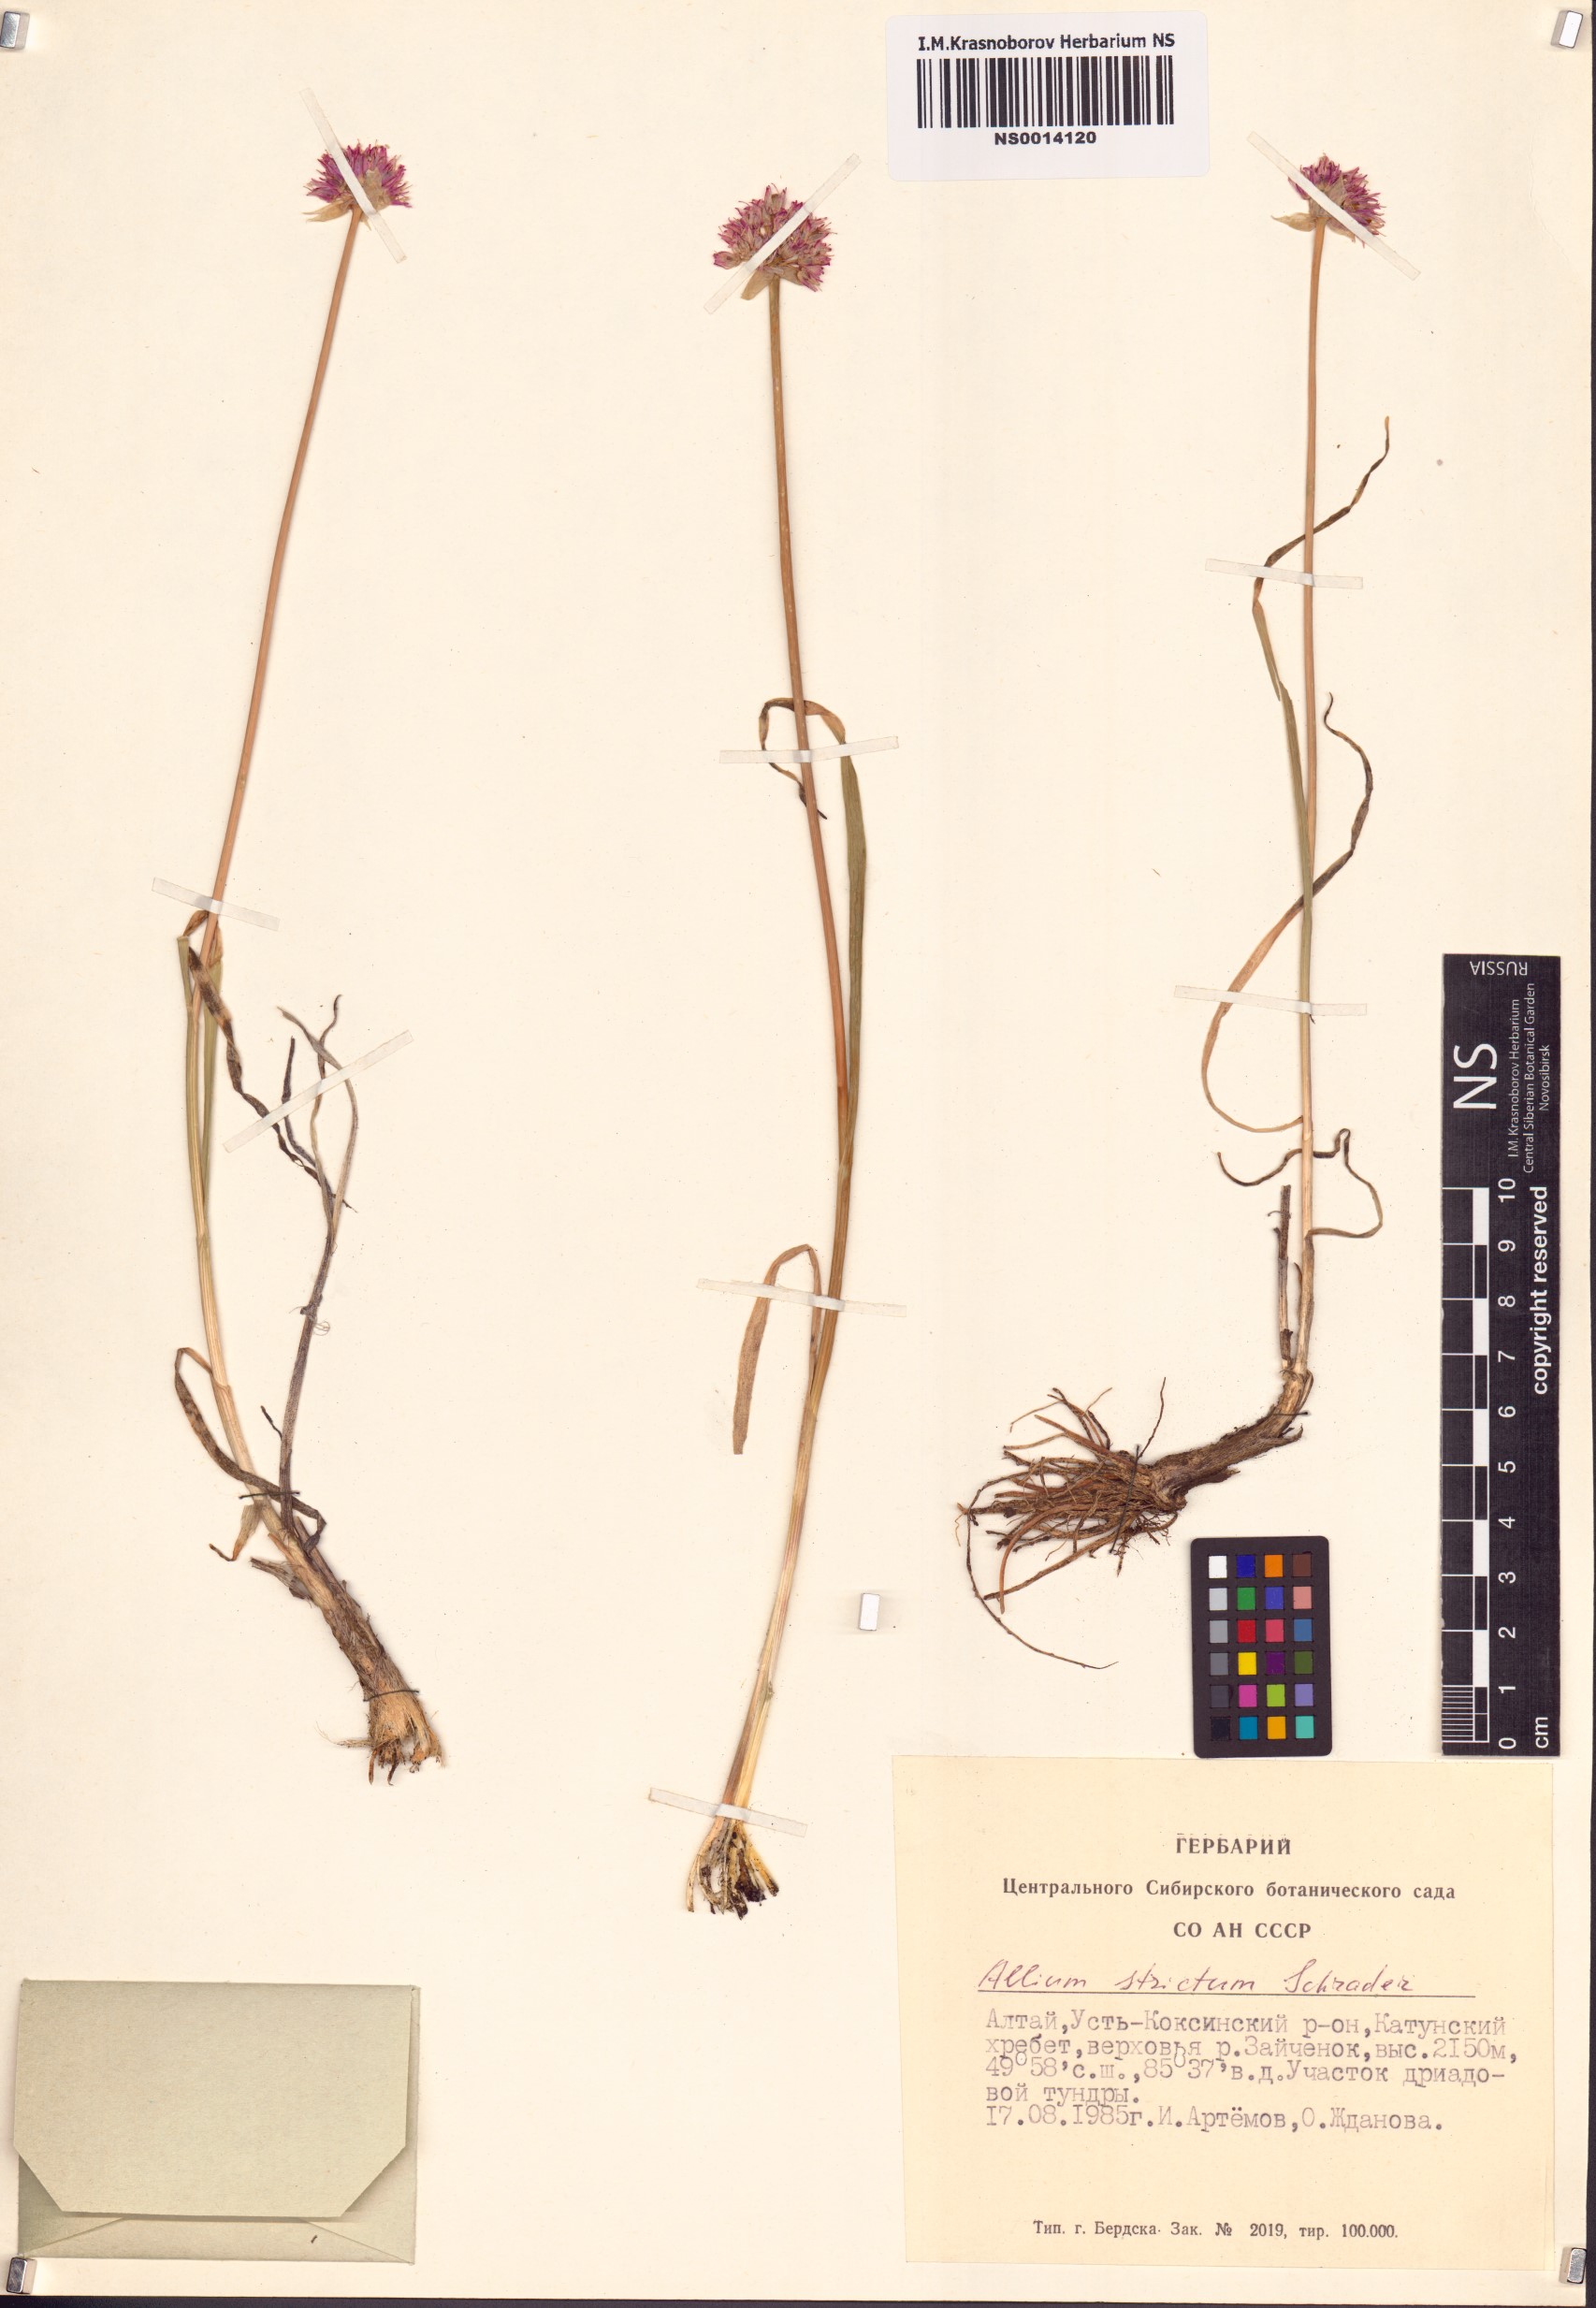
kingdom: Plantae
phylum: Tracheophyta
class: Liliopsida
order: Asparagales
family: Amaryllidaceae
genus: Allium
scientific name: Allium strictum
